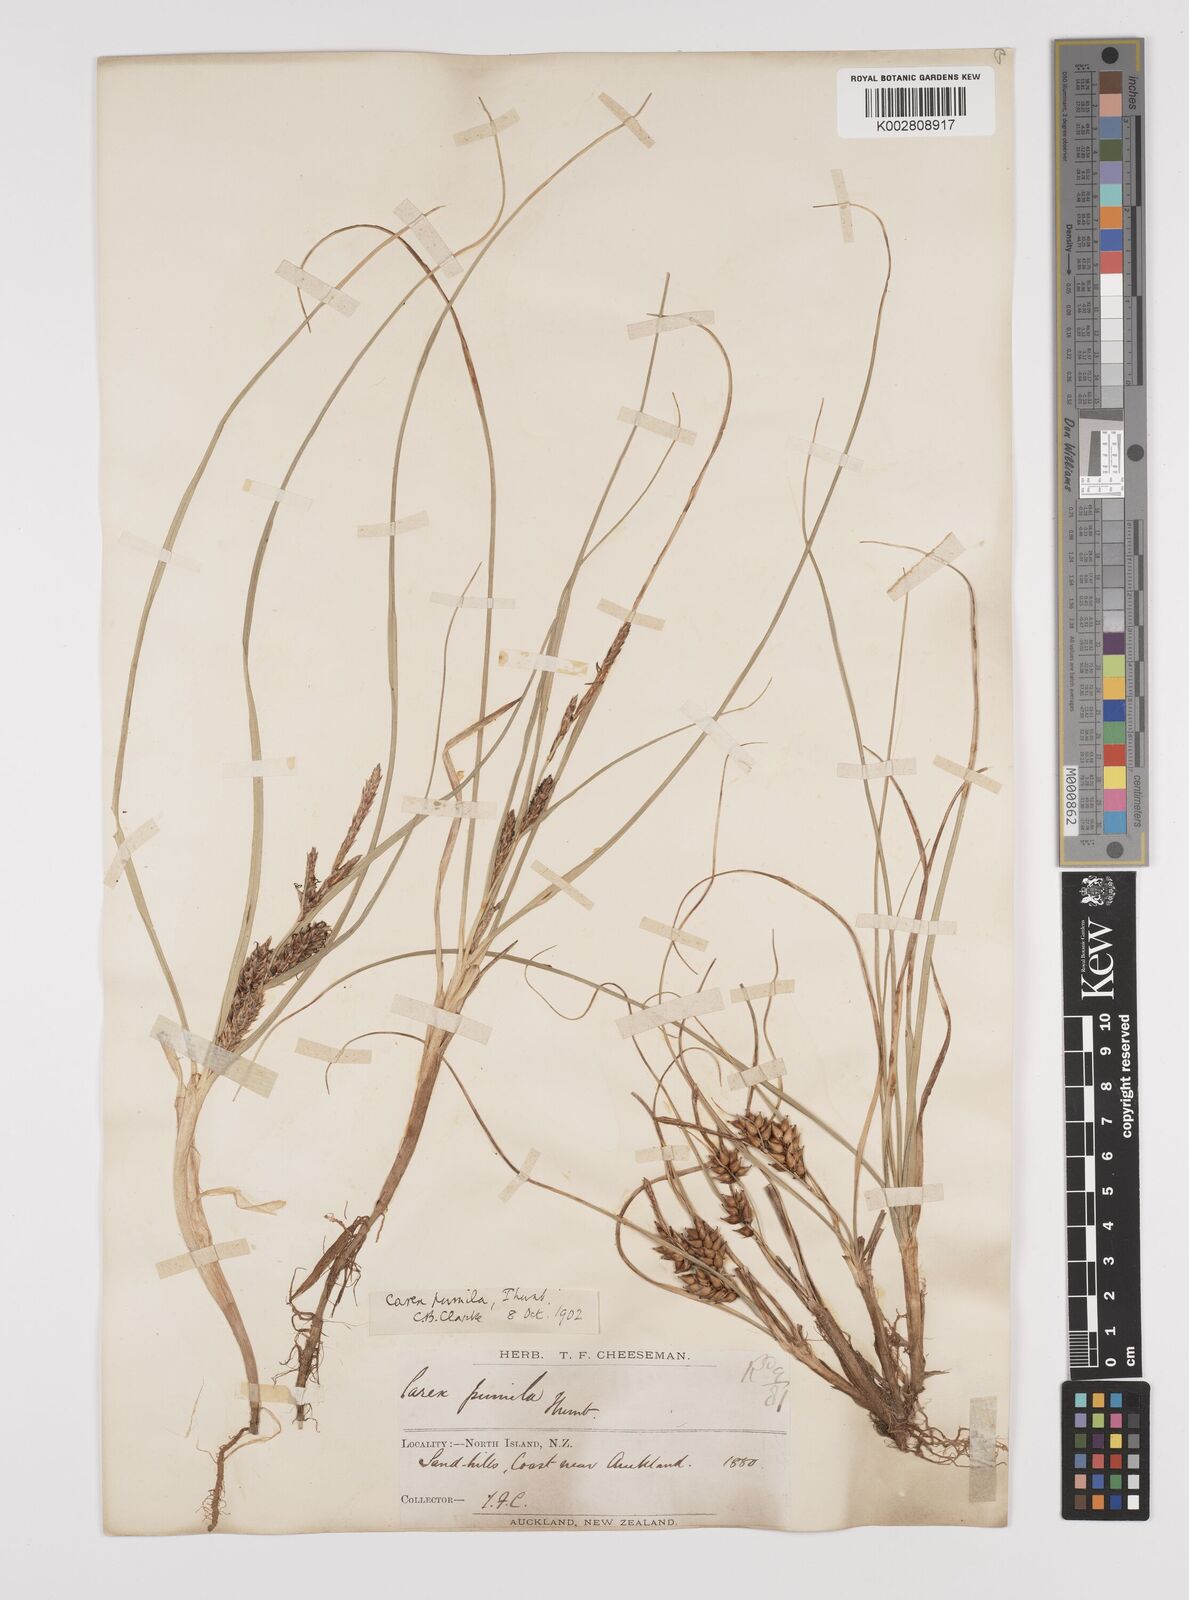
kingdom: Plantae
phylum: Tracheophyta
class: Liliopsida
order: Poales
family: Cyperaceae
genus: Carex
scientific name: Carex pumila
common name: Dwarf sedge
